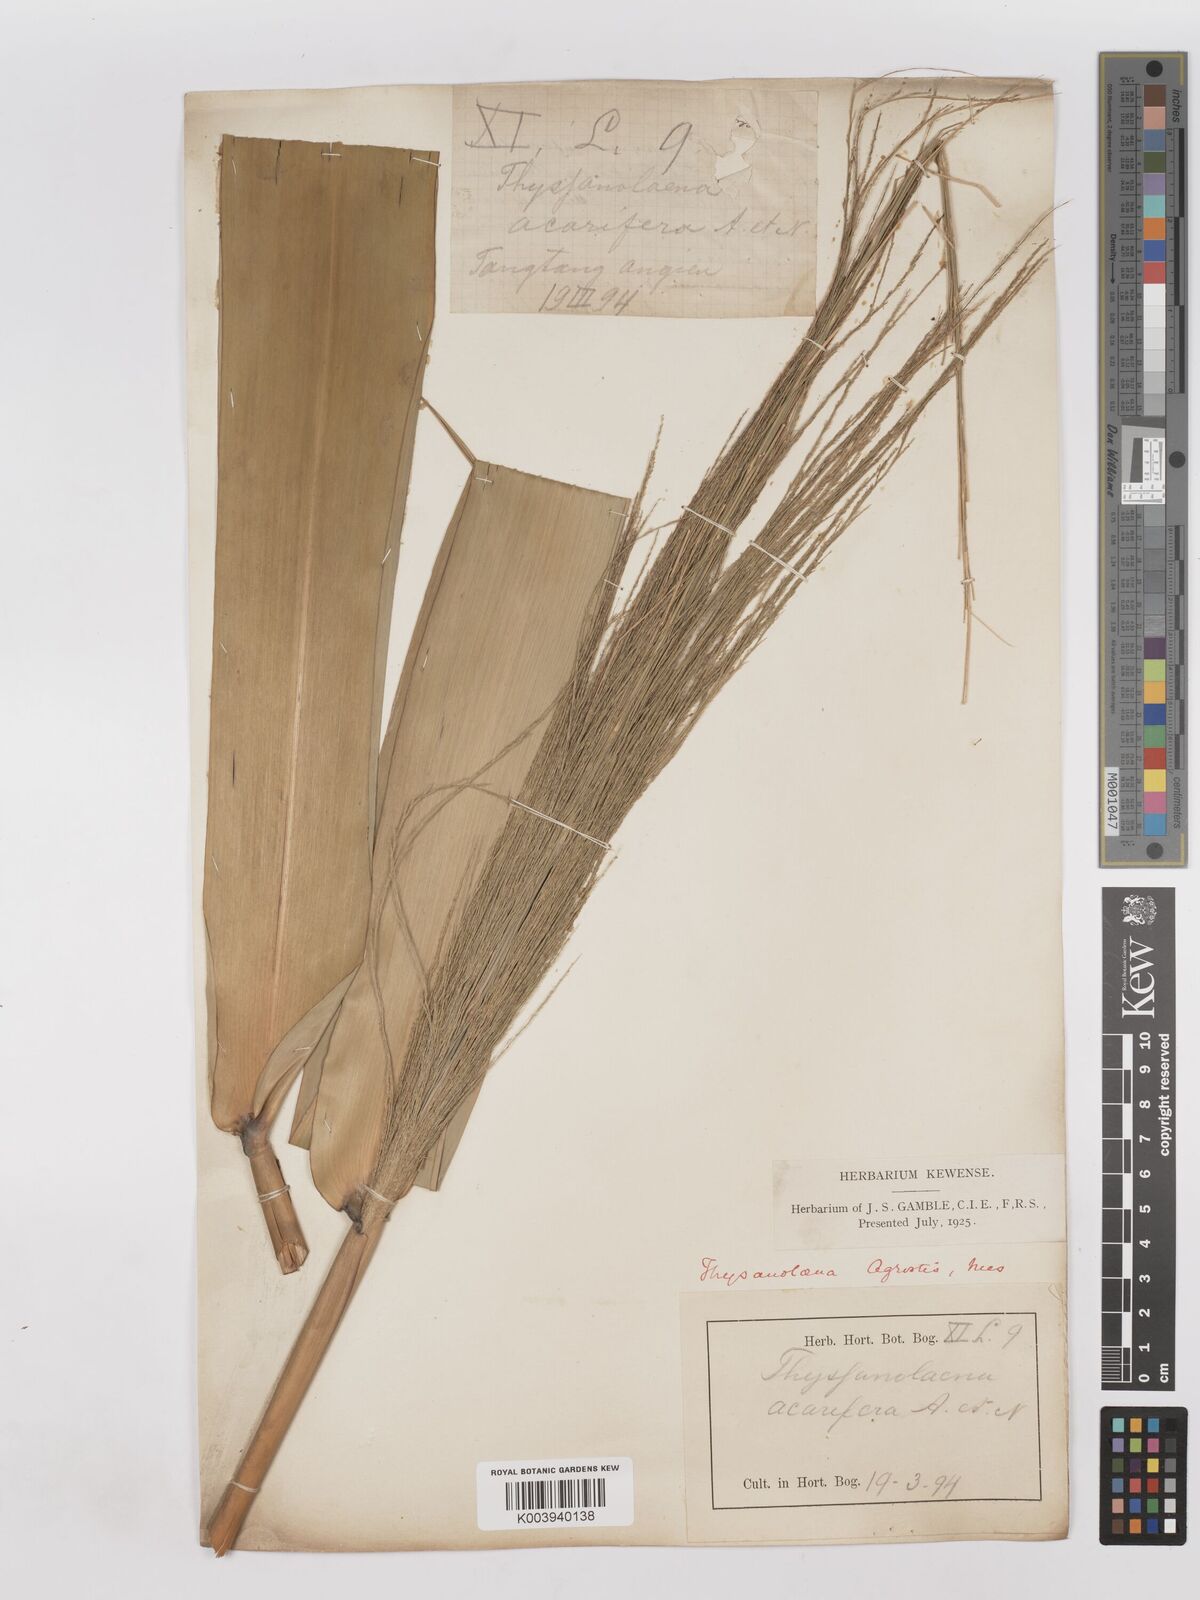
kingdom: Plantae
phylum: Tracheophyta
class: Liliopsida
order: Poales
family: Poaceae
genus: Thysanolaena
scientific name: Thysanolaena latifolia
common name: Tiger grass
